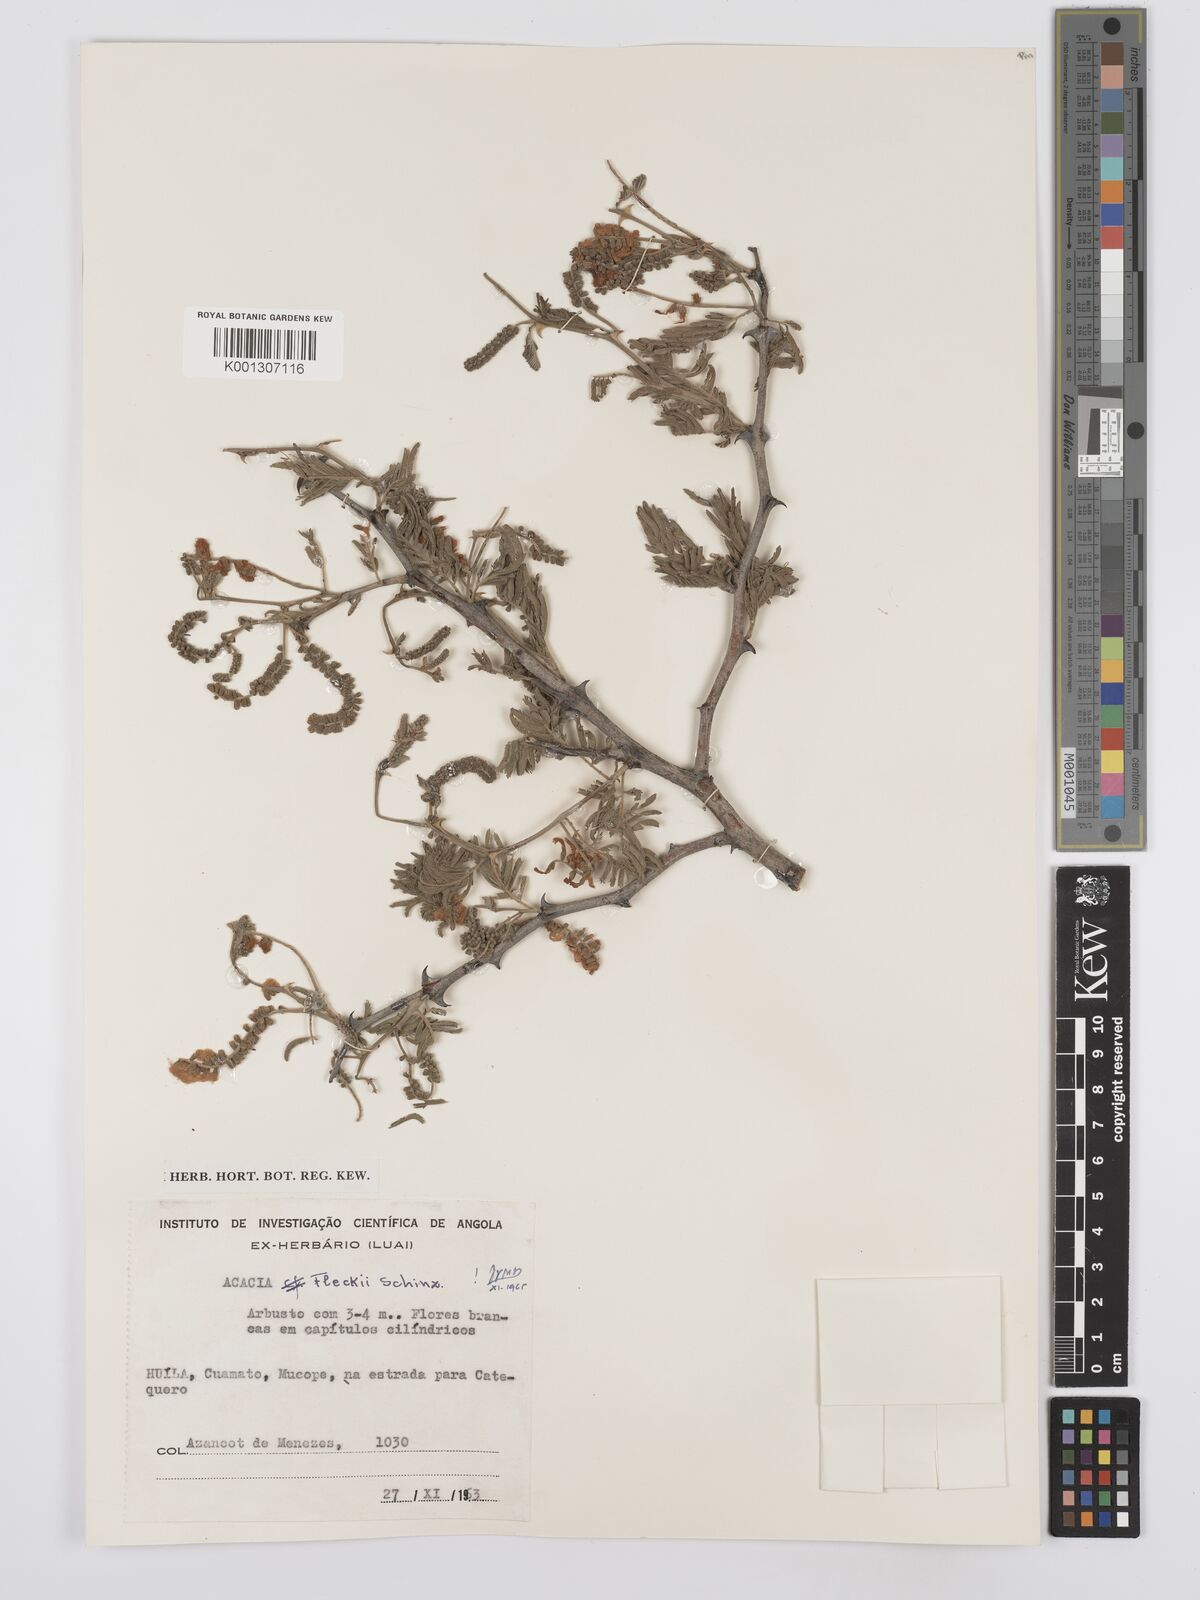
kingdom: Plantae
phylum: Tracheophyta
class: Magnoliopsida
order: Fabales
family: Fabaceae
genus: Senegalia
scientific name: Senegalia fleckii
